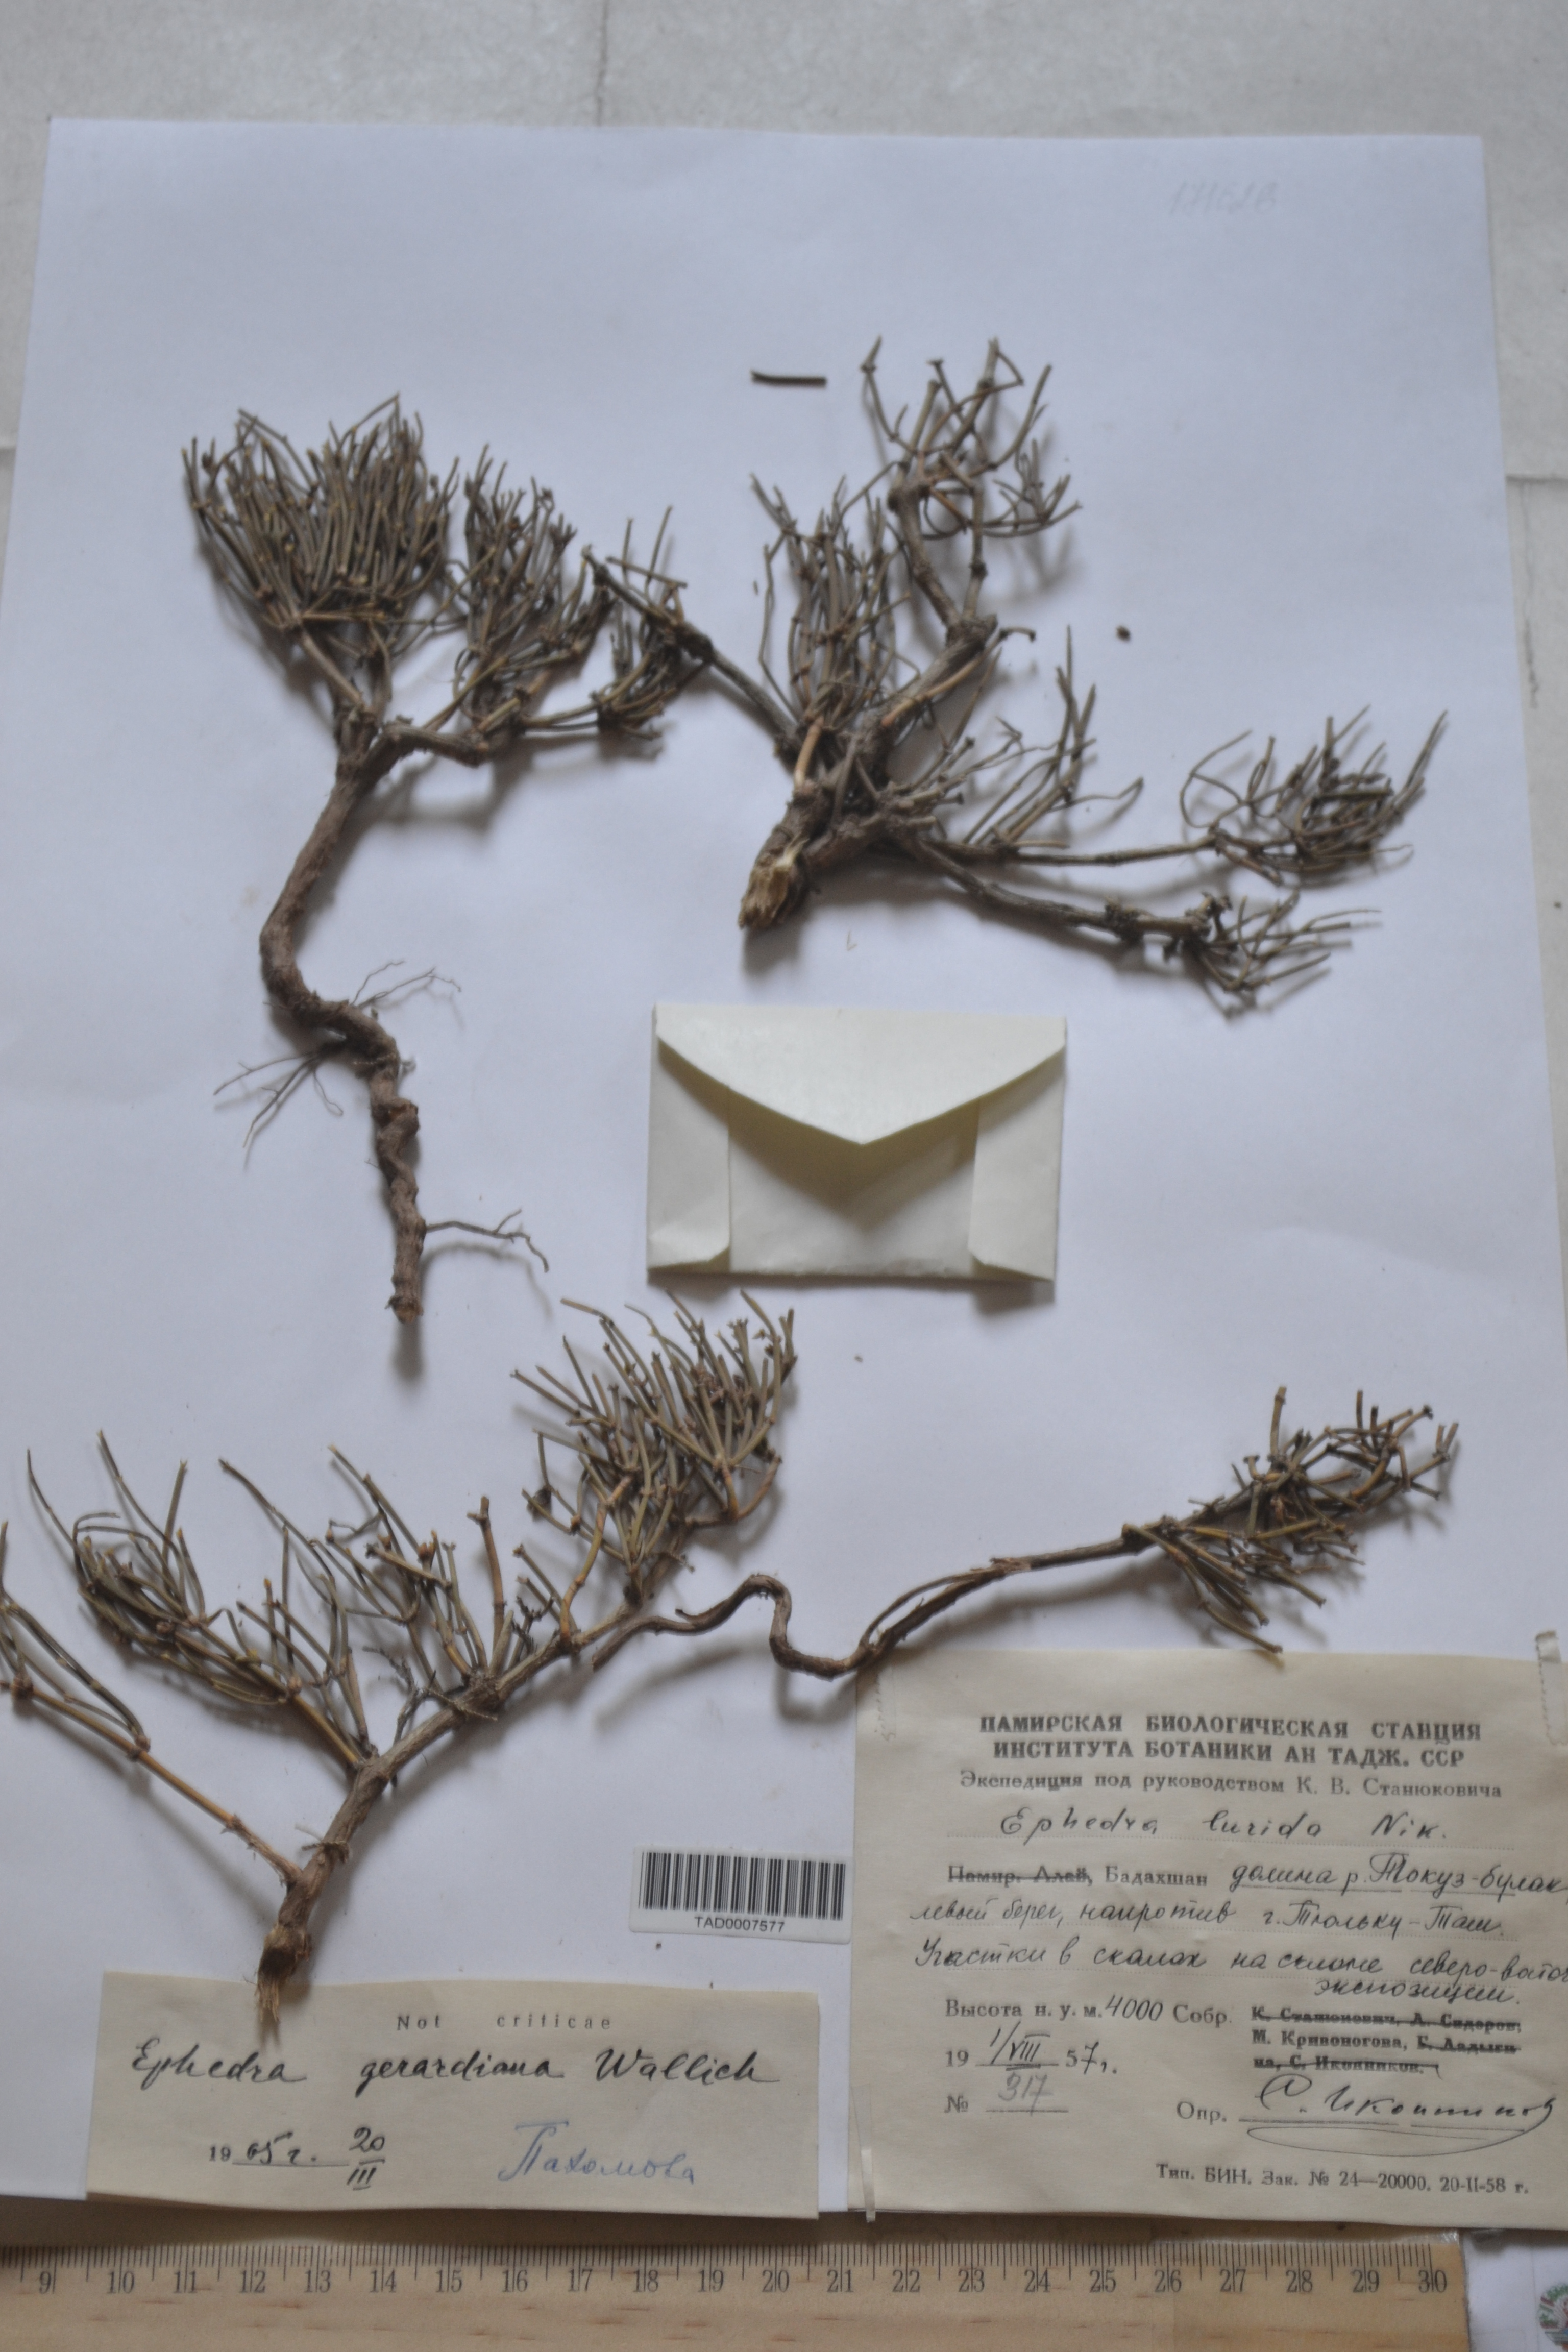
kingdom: Plantae
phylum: Tracheophyta
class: Gnetopsida
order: Ephedrales
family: Ephedraceae
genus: Ephedra
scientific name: Ephedra gerardiana
